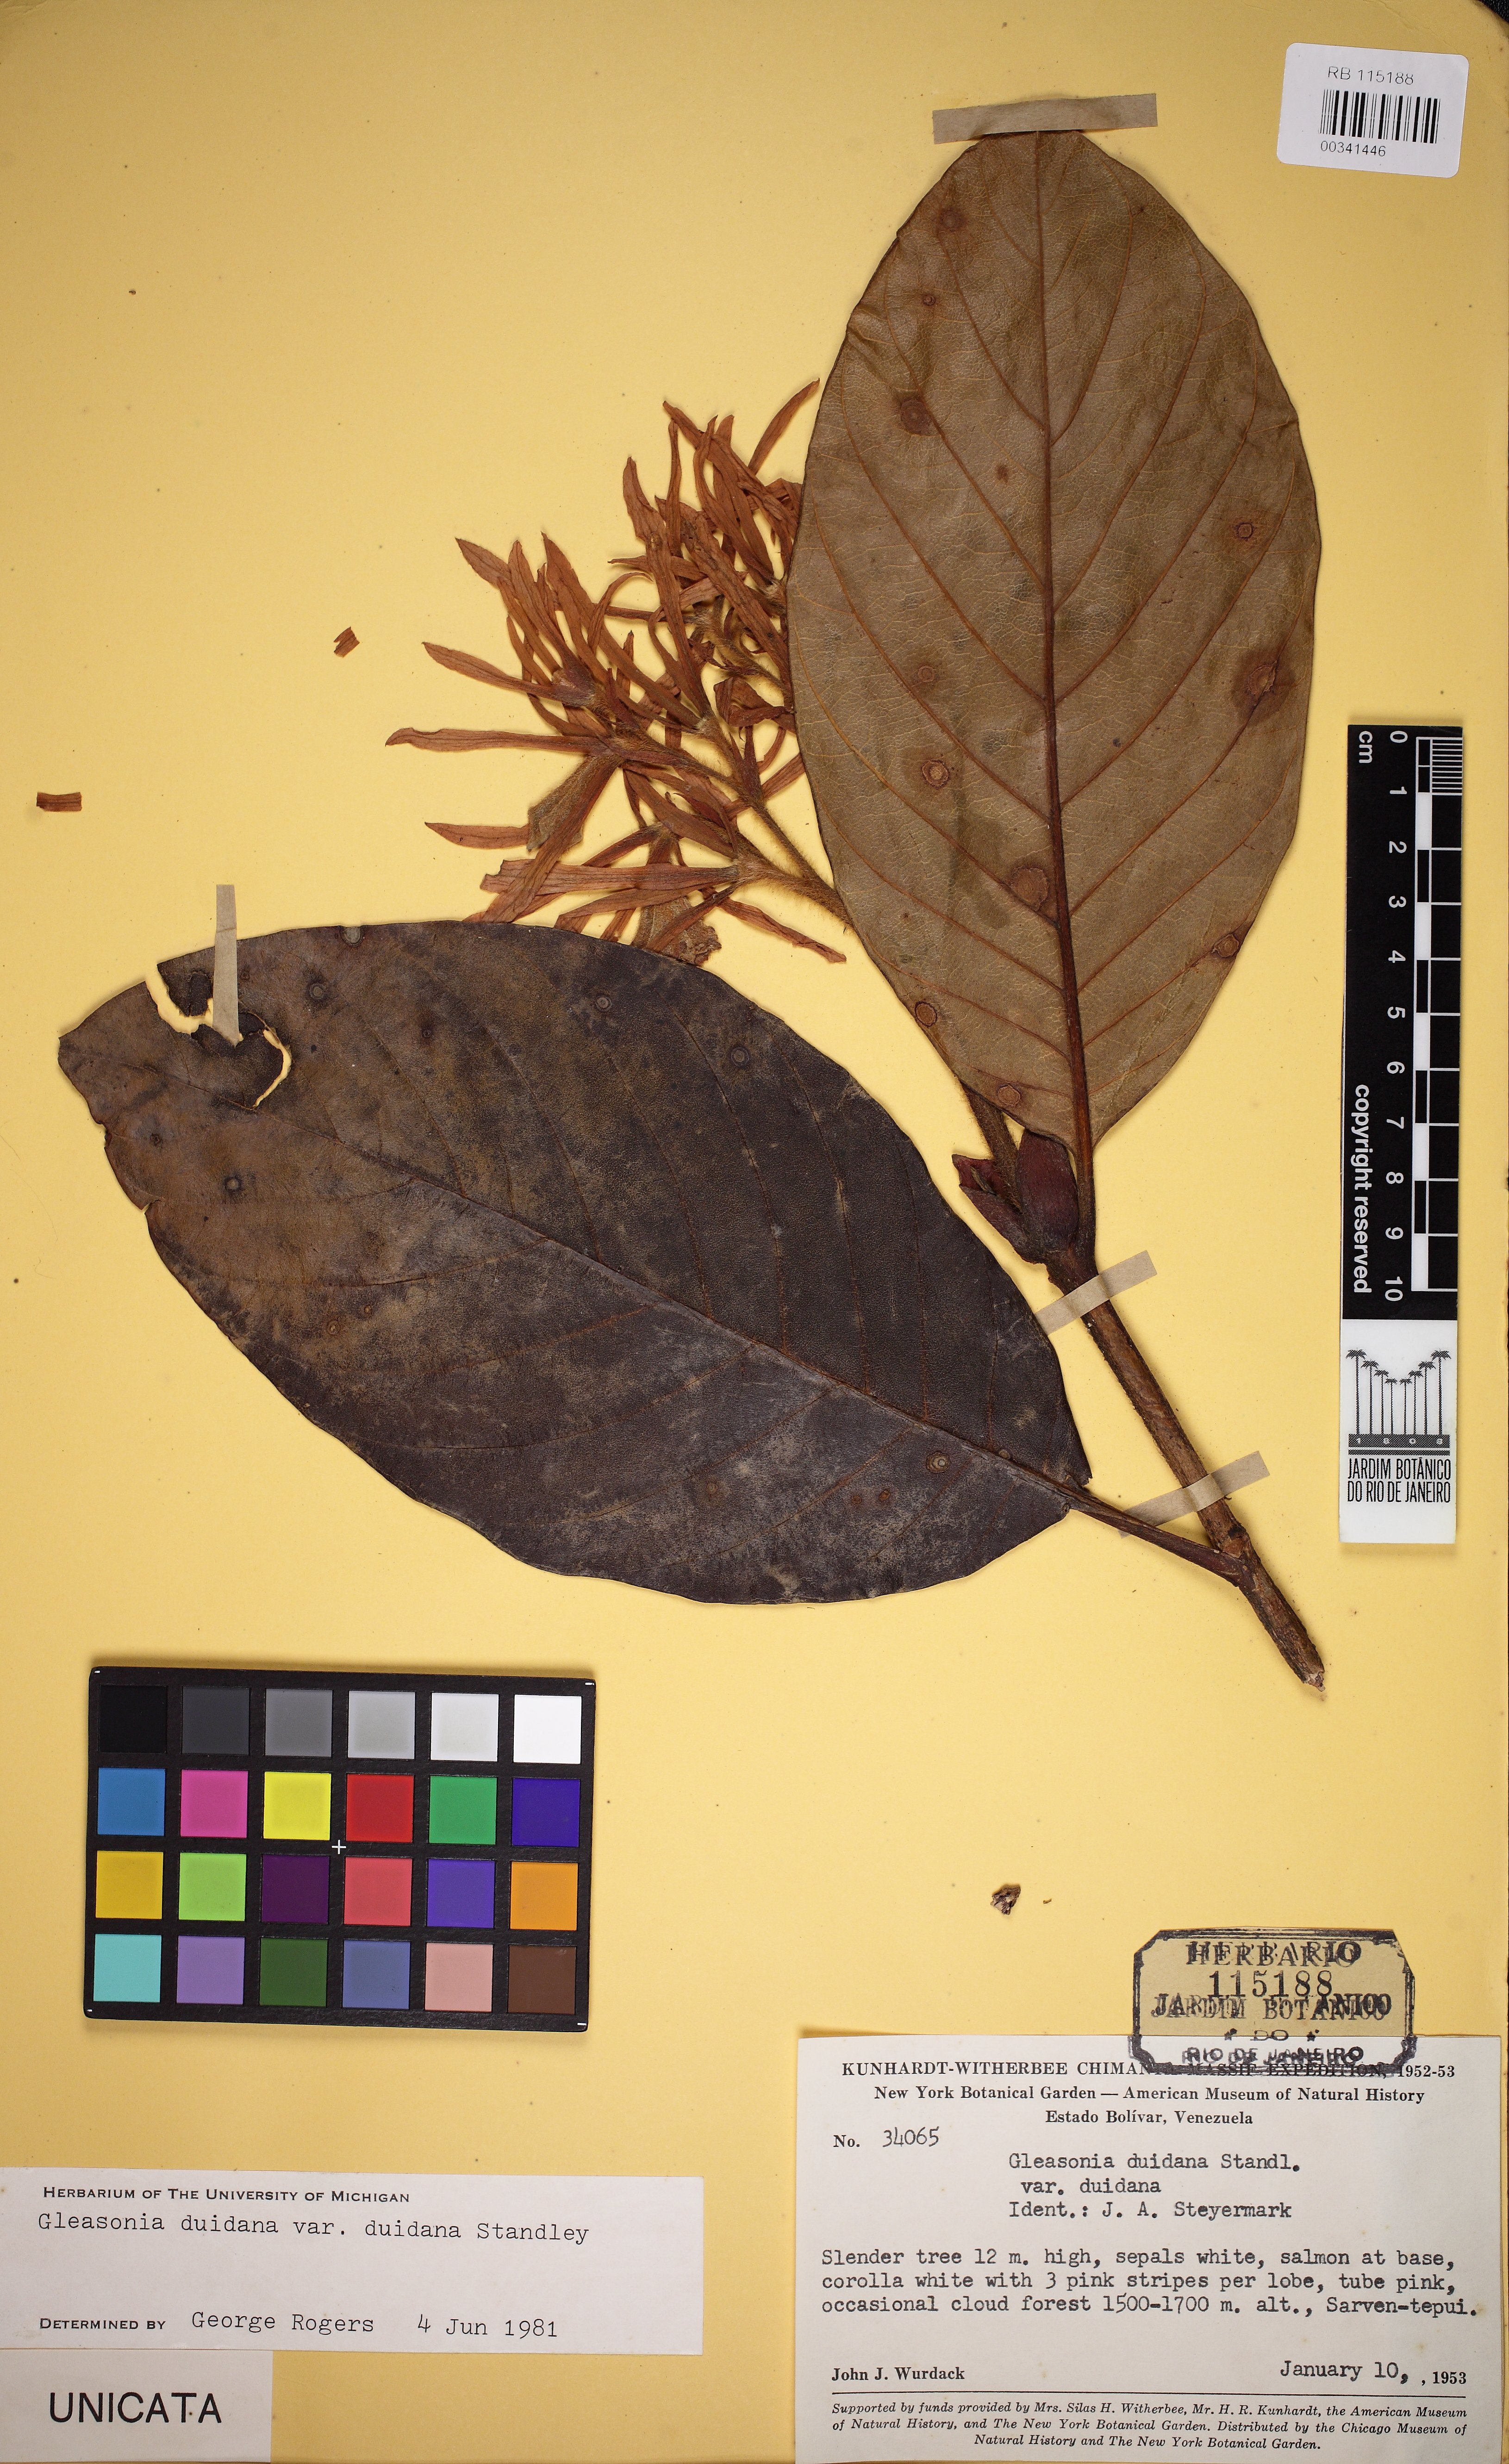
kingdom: Plantae
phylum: Tracheophyta
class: Magnoliopsida
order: Gentianales
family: Rubiaceae
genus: Gleasonia
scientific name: Gleasonia duidana
